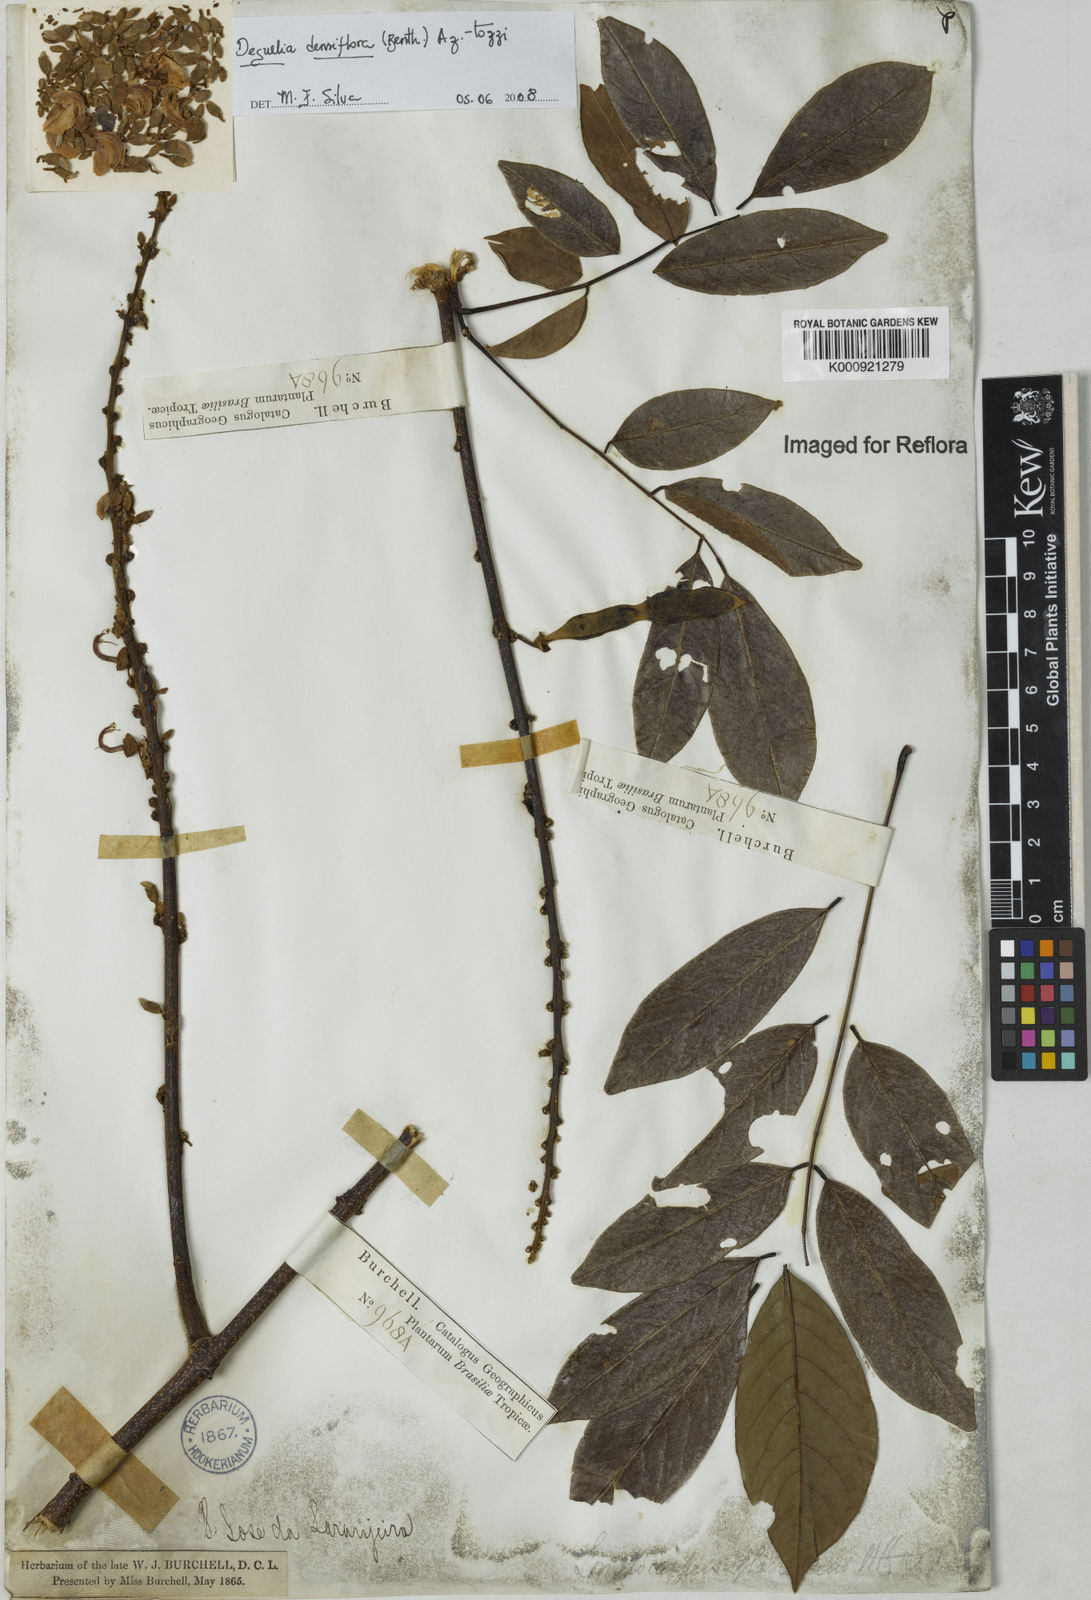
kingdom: Plantae
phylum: Tracheophyta
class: Magnoliopsida
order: Fabales
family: Fabaceae
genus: Deguelia
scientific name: Deguelia
